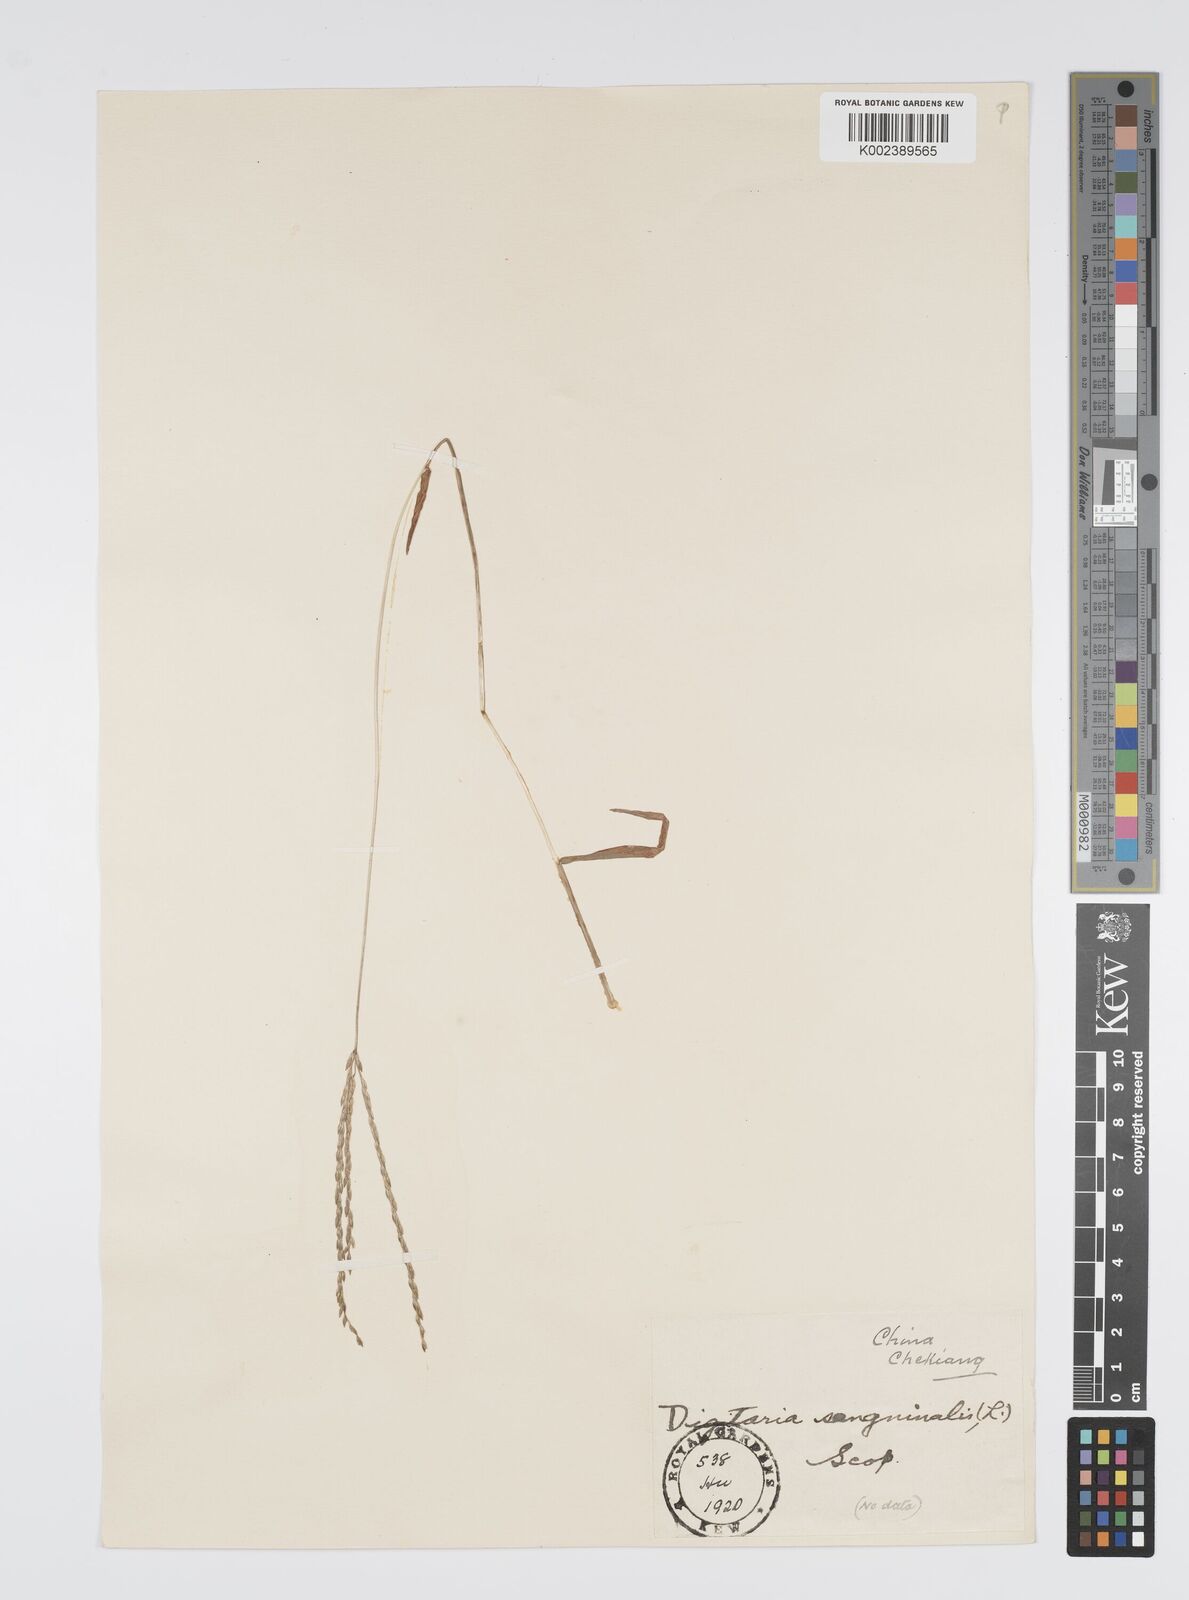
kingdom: Plantae
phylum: Tracheophyta
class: Liliopsida
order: Poales
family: Poaceae
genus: Digitaria
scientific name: Digitaria ciliaris
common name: Tropical finger-grass
